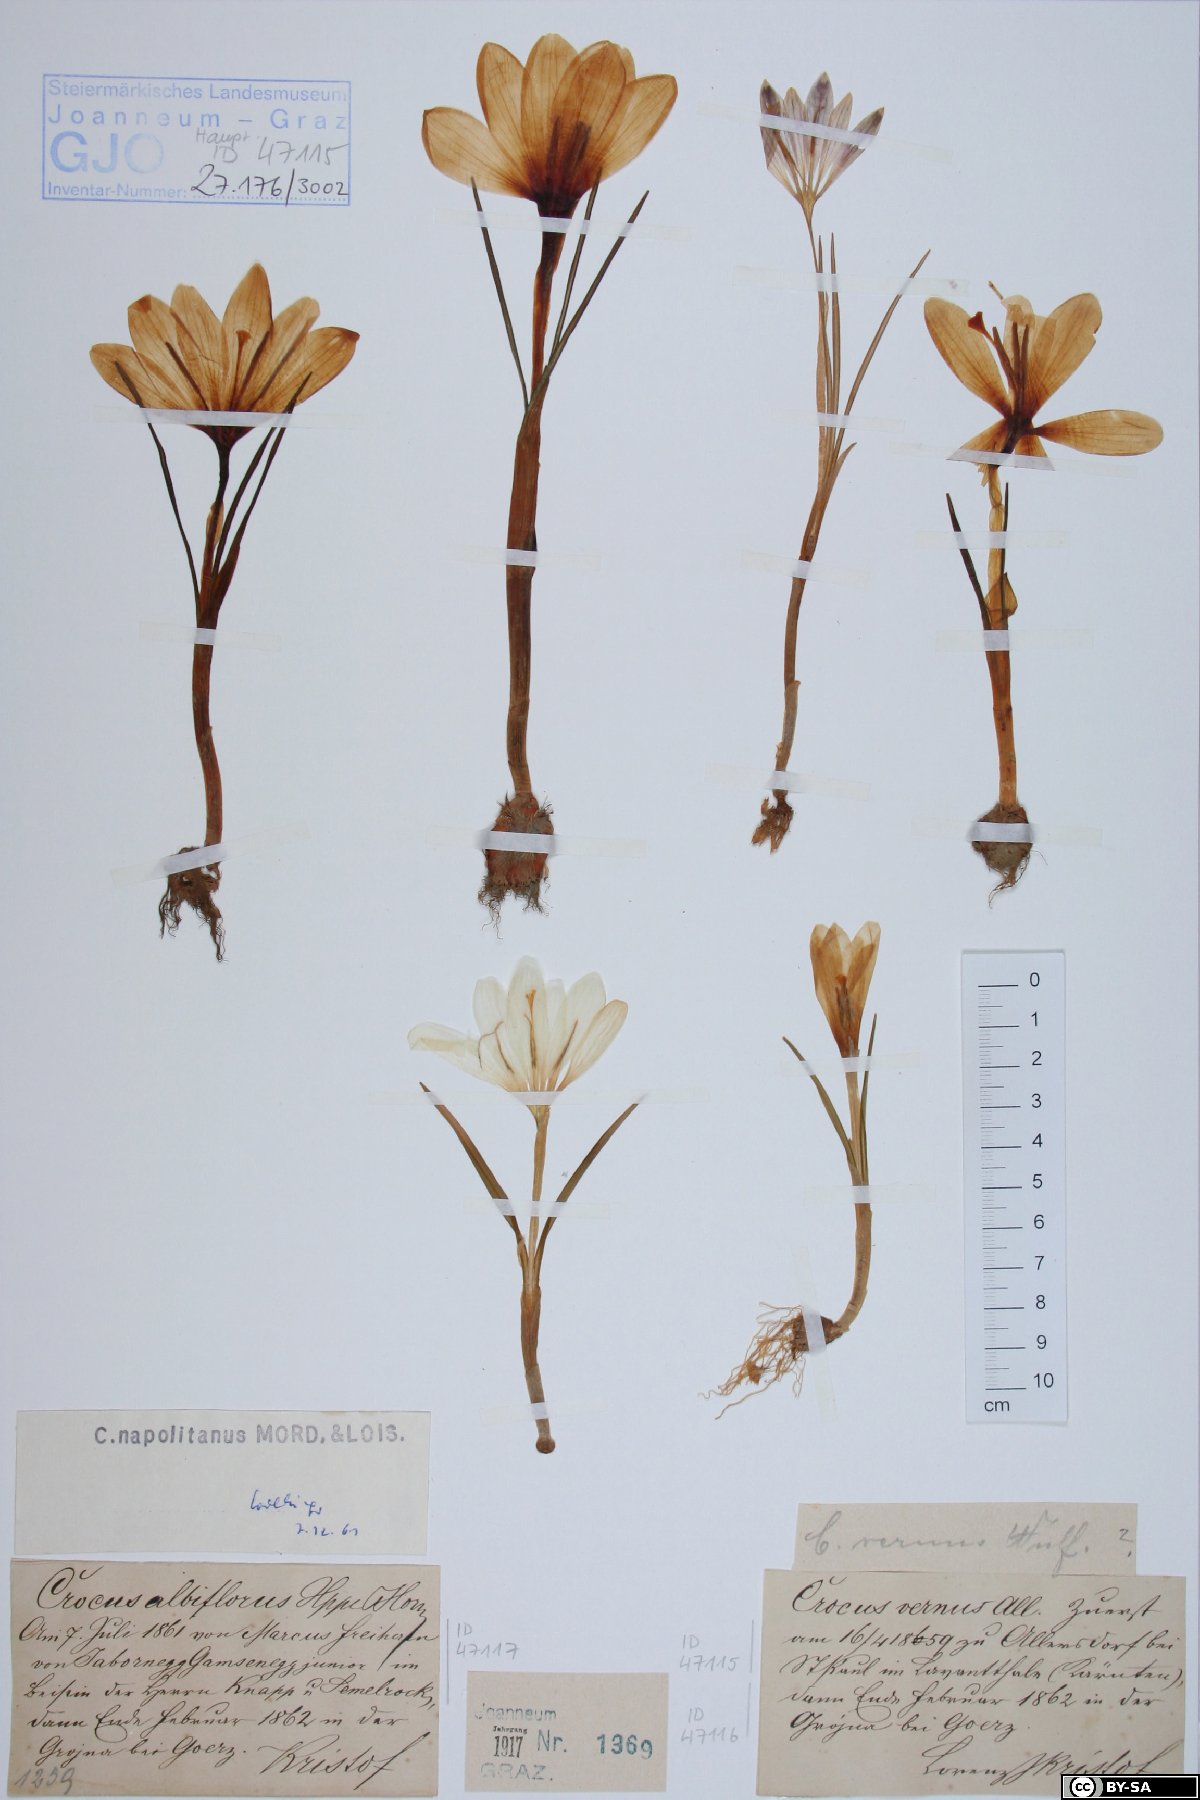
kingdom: Plantae
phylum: Tracheophyta
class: Liliopsida
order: Asparagales
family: Iridaceae
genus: Crocus
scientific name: Crocus vernus
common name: Spring crocus
